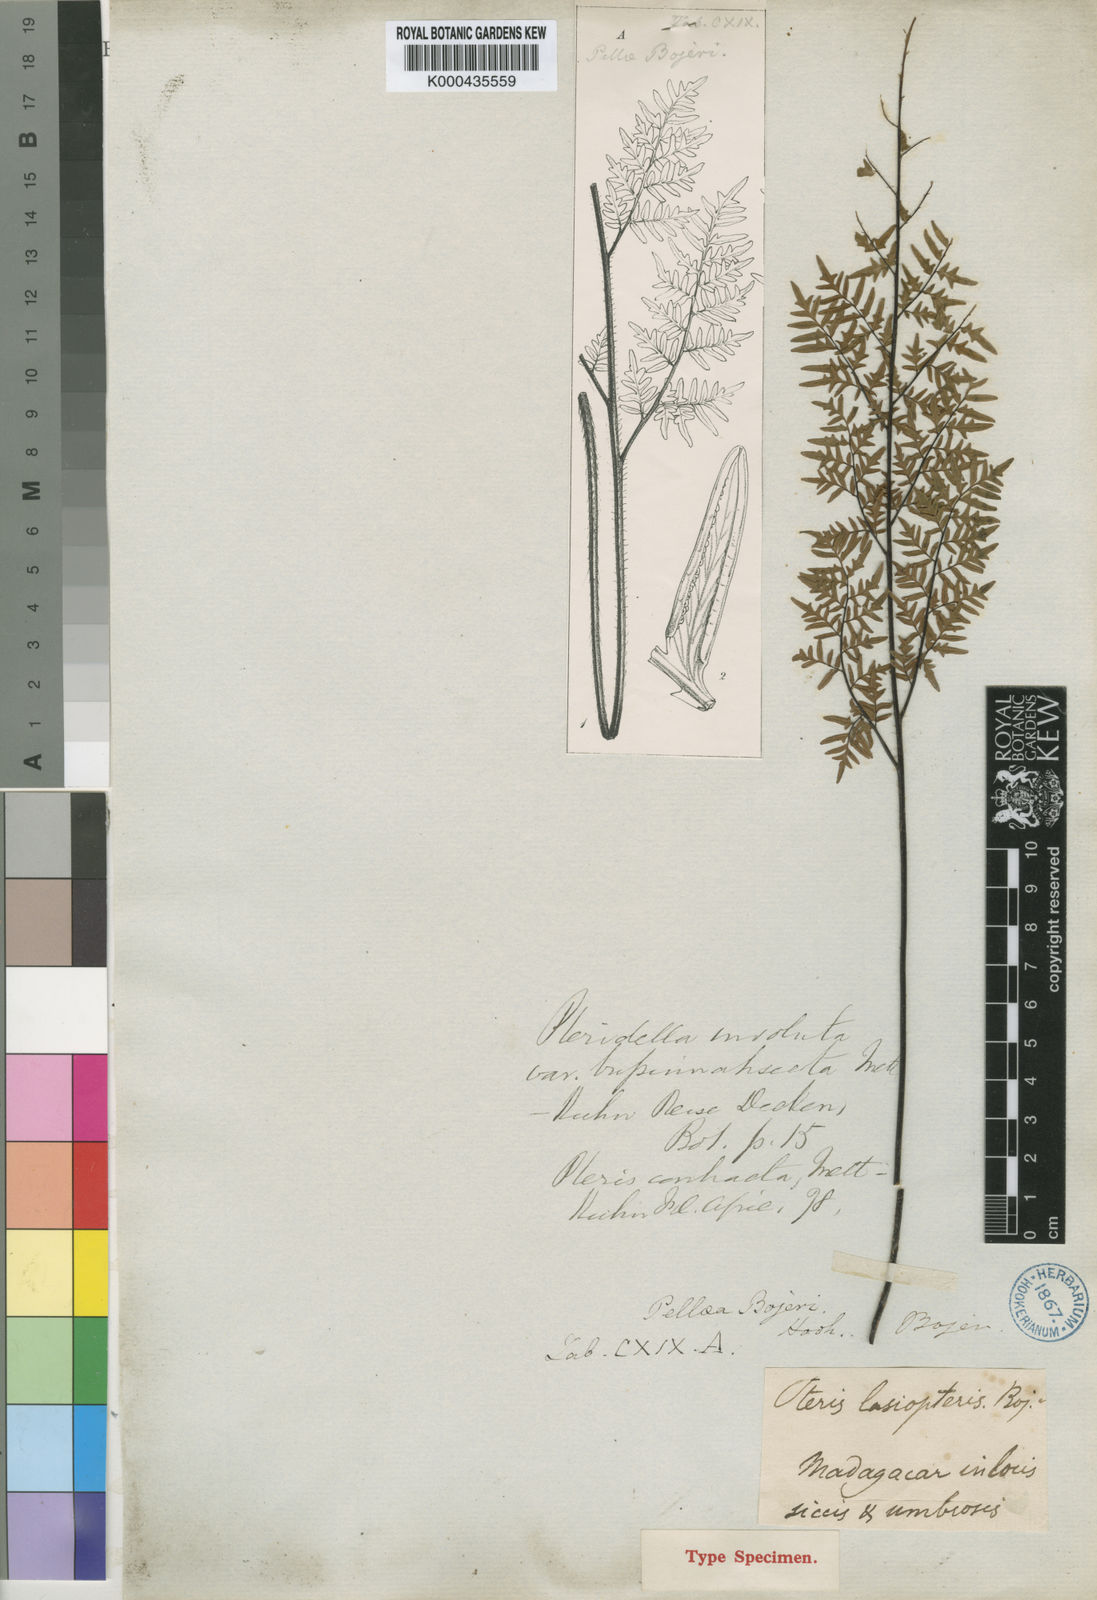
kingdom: Plantae
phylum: Tracheophyta
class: Polypodiopsida
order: Polypodiales
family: Pteridaceae
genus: Cheilanthes
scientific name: Cheilanthes involuta
